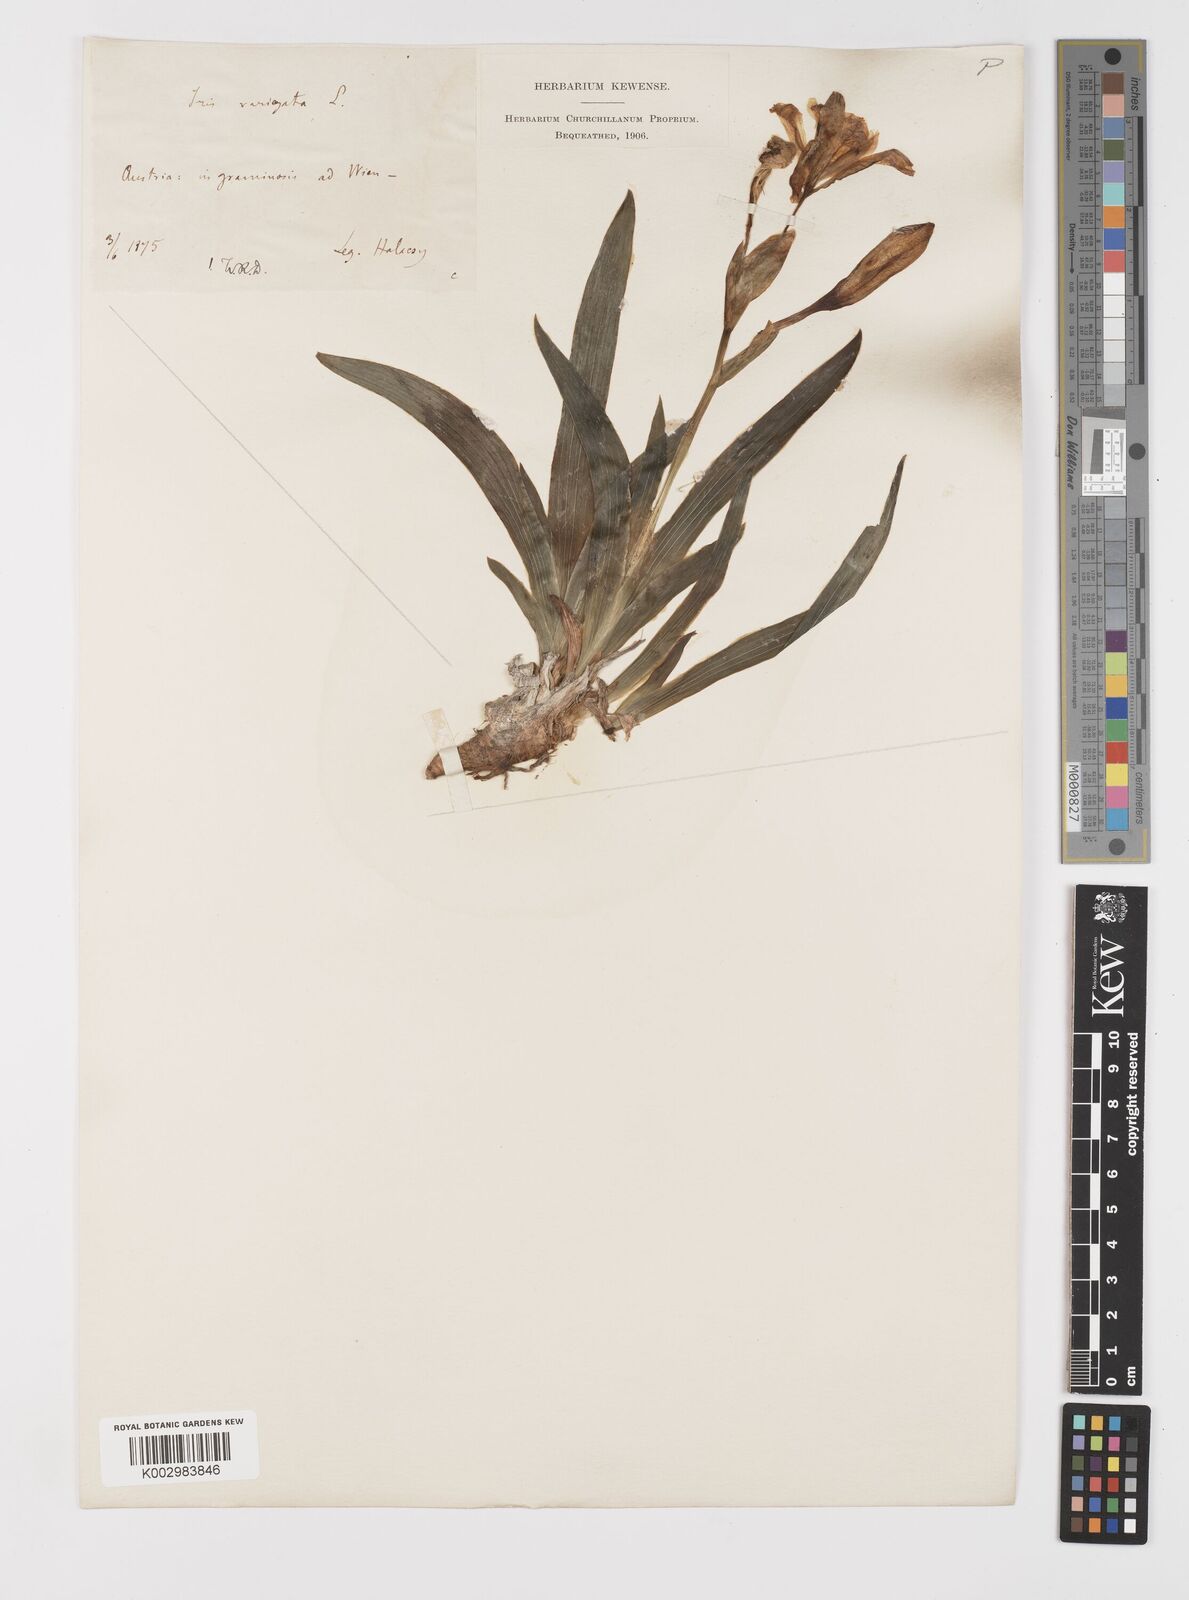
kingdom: Plantae
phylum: Tracheophyta
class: Liliopsida
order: Asparagales
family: Iridaceae
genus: Iris
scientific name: Iris variegata
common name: Hungarian iris
